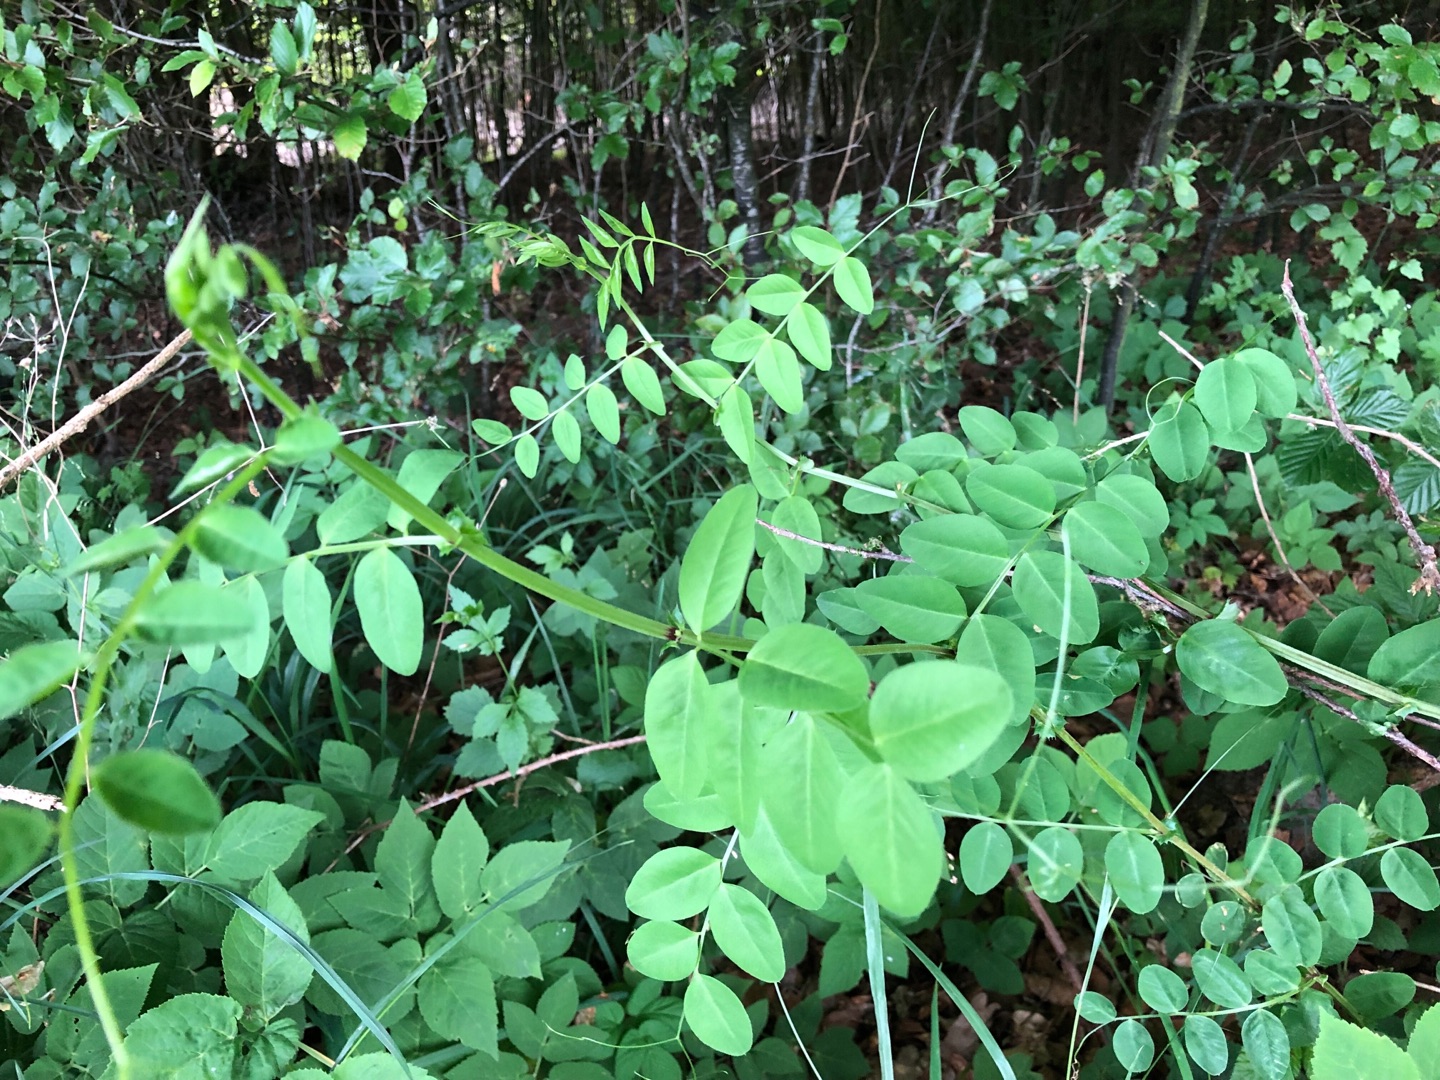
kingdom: Plantae
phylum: Tracheophyta
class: Magnoliopsida
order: Fabales
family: Fabaceae
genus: Vicia
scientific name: Vicia dumetorum
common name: Krat-vikke
